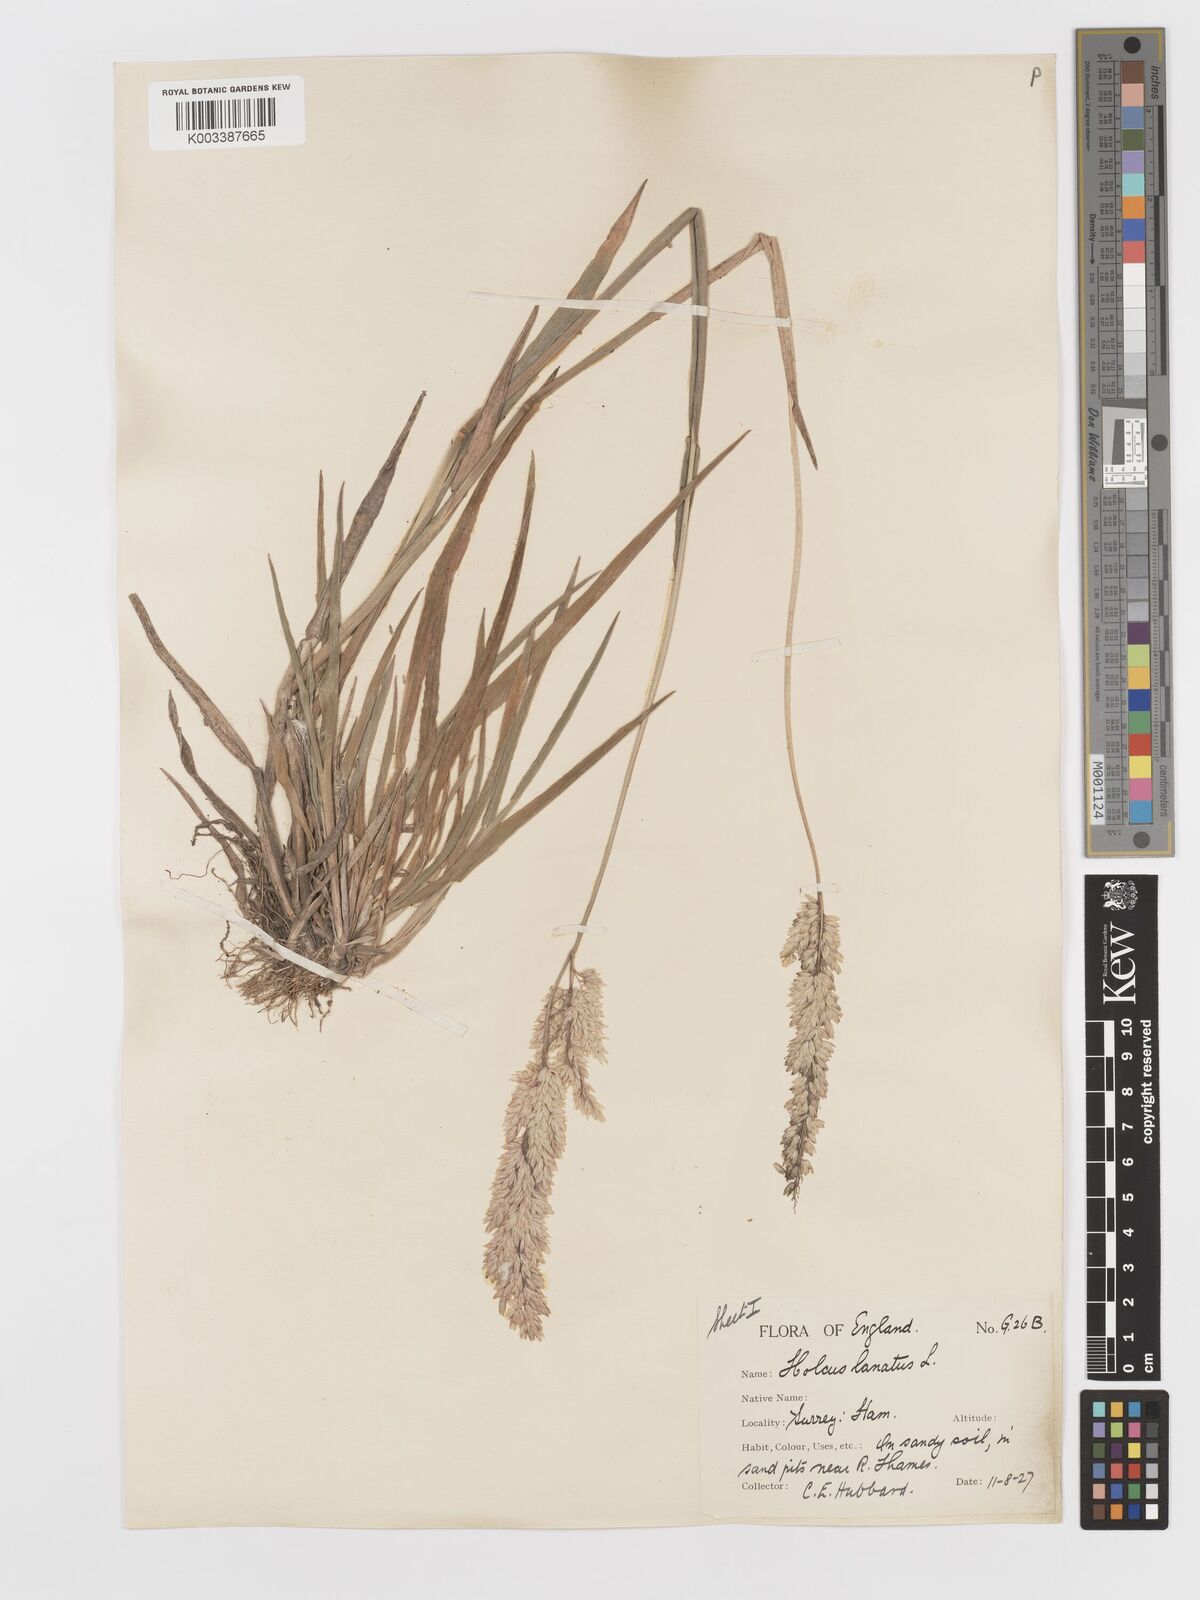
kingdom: Plantae
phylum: Tracheophyta
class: Liliopsida
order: Poales
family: Poaceae
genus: Holcus
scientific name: Holcus lanatus
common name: Yorkshire-fog
